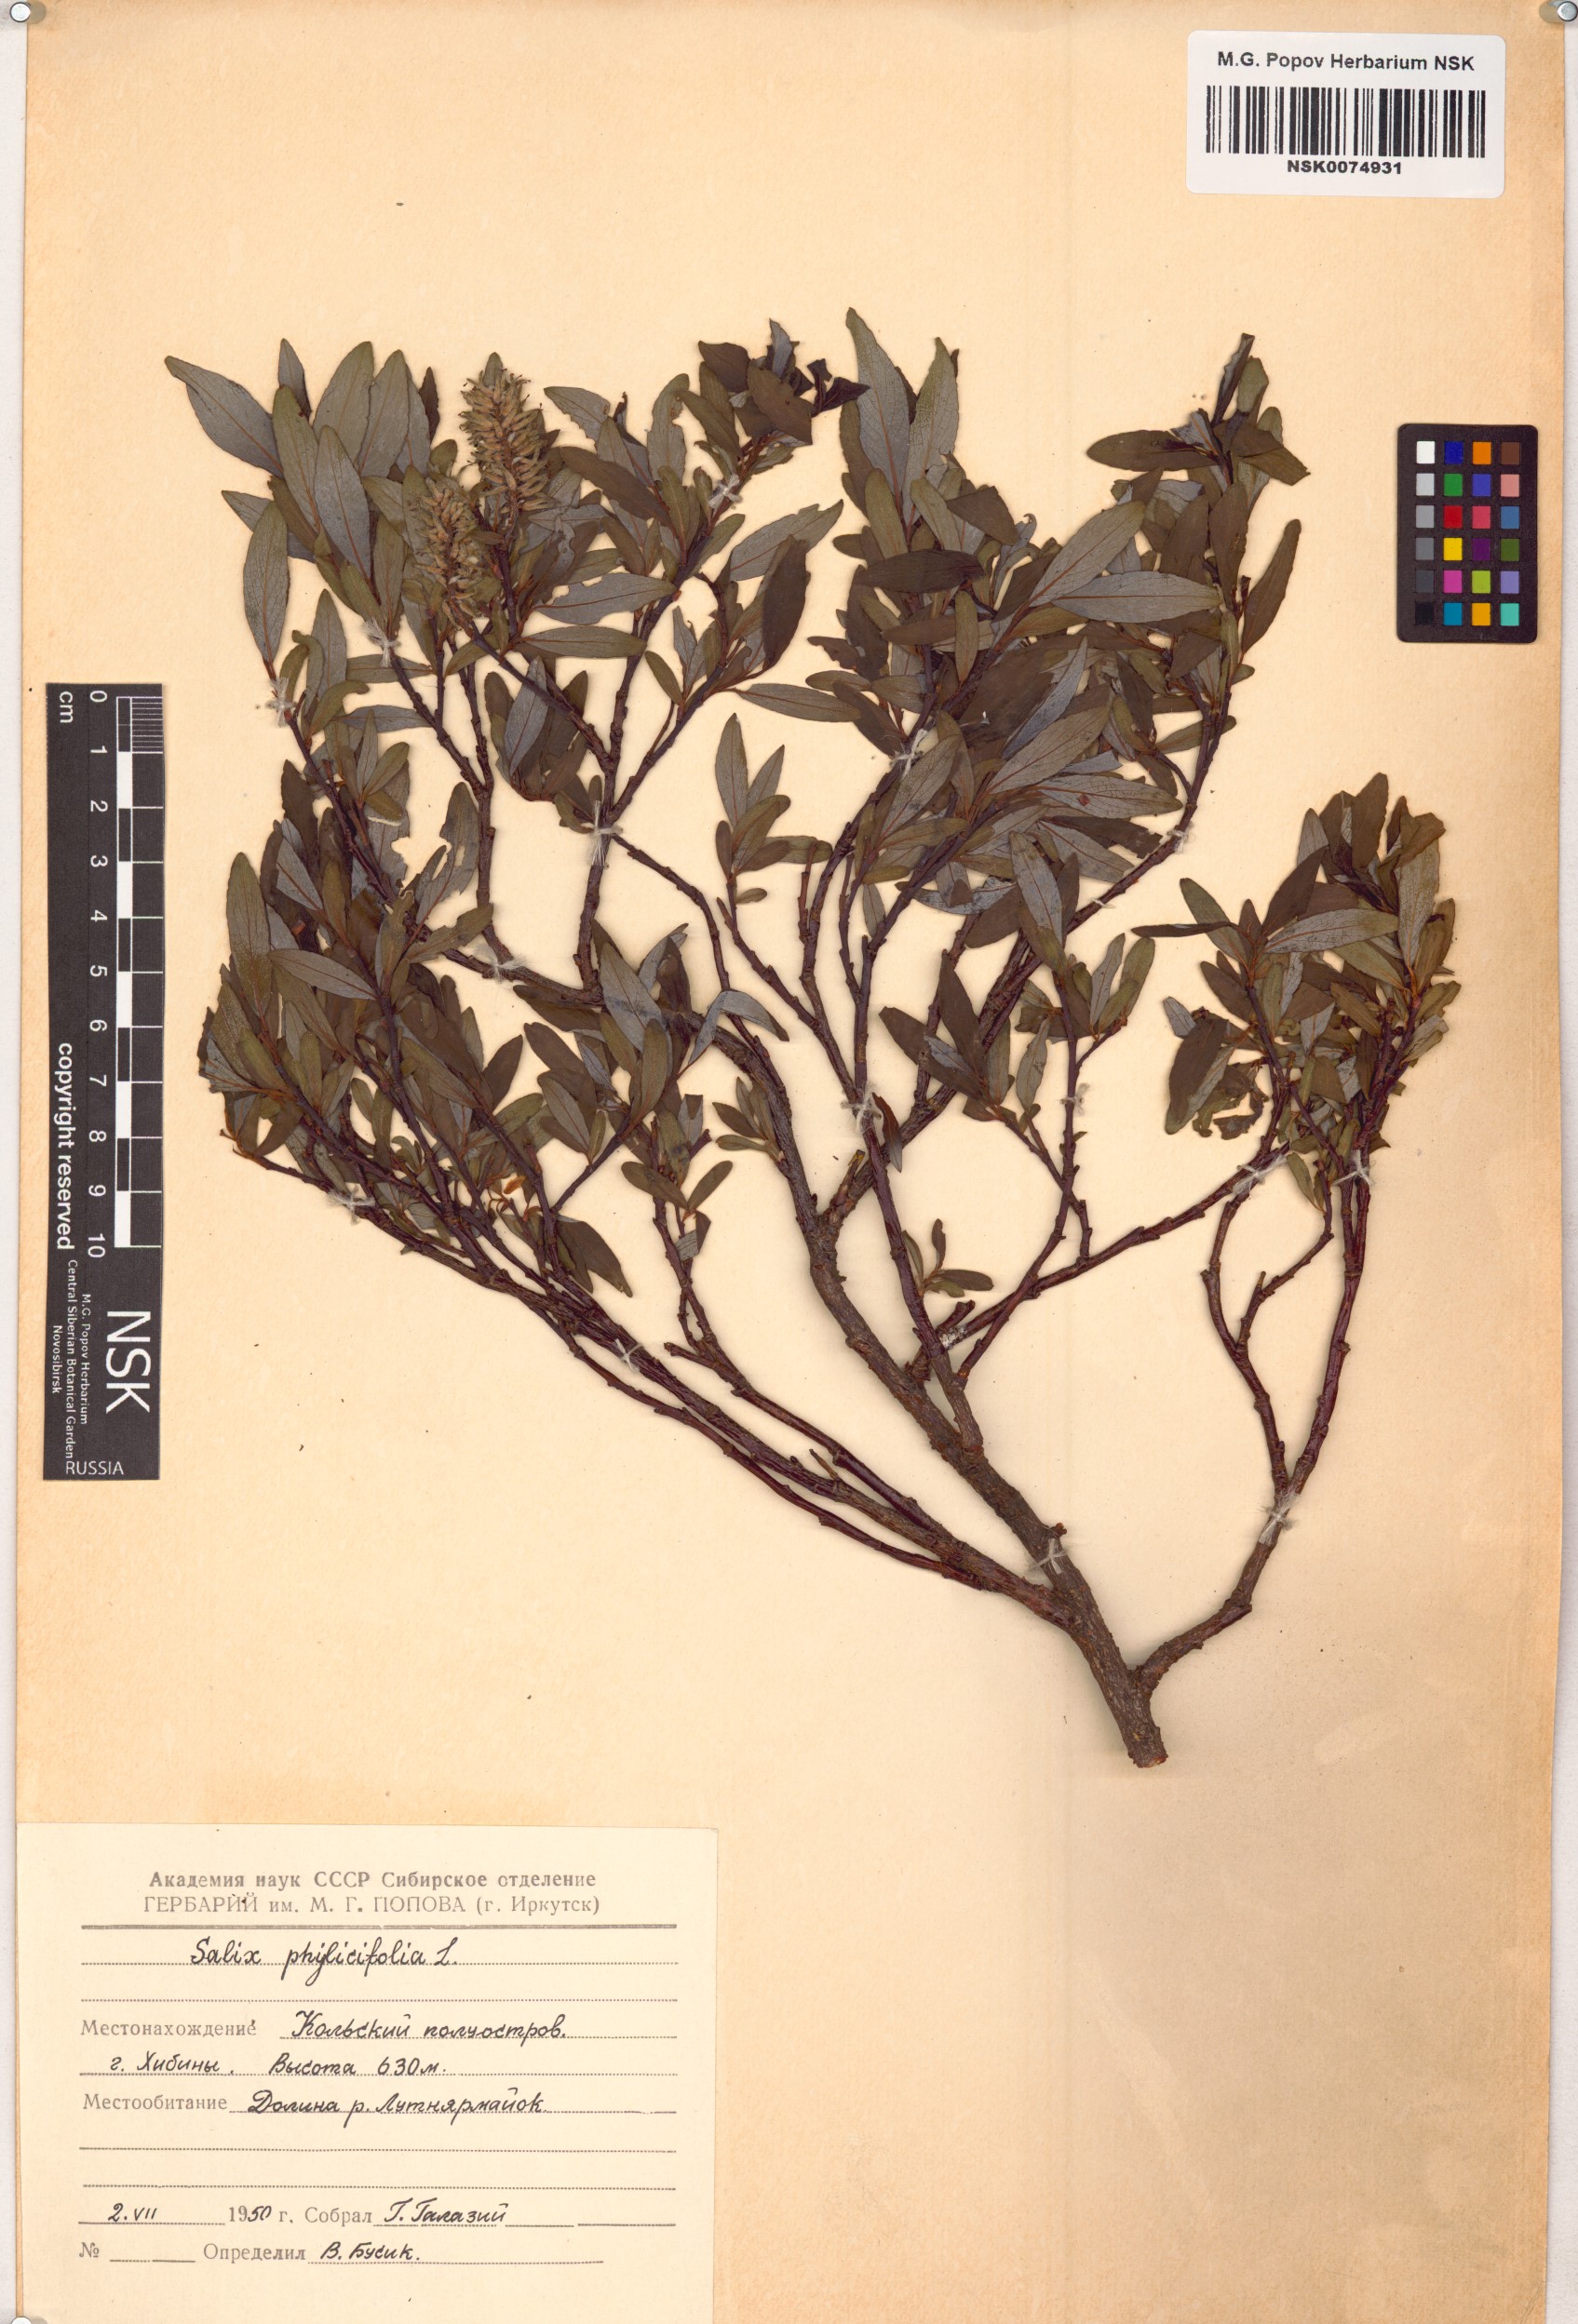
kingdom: Plantae
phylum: Tracheophyta
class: Magnoliopsida
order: Malpighiales
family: Salicaceae
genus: Salix
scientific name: Salix phylicifolia
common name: Tea-leaved willow
